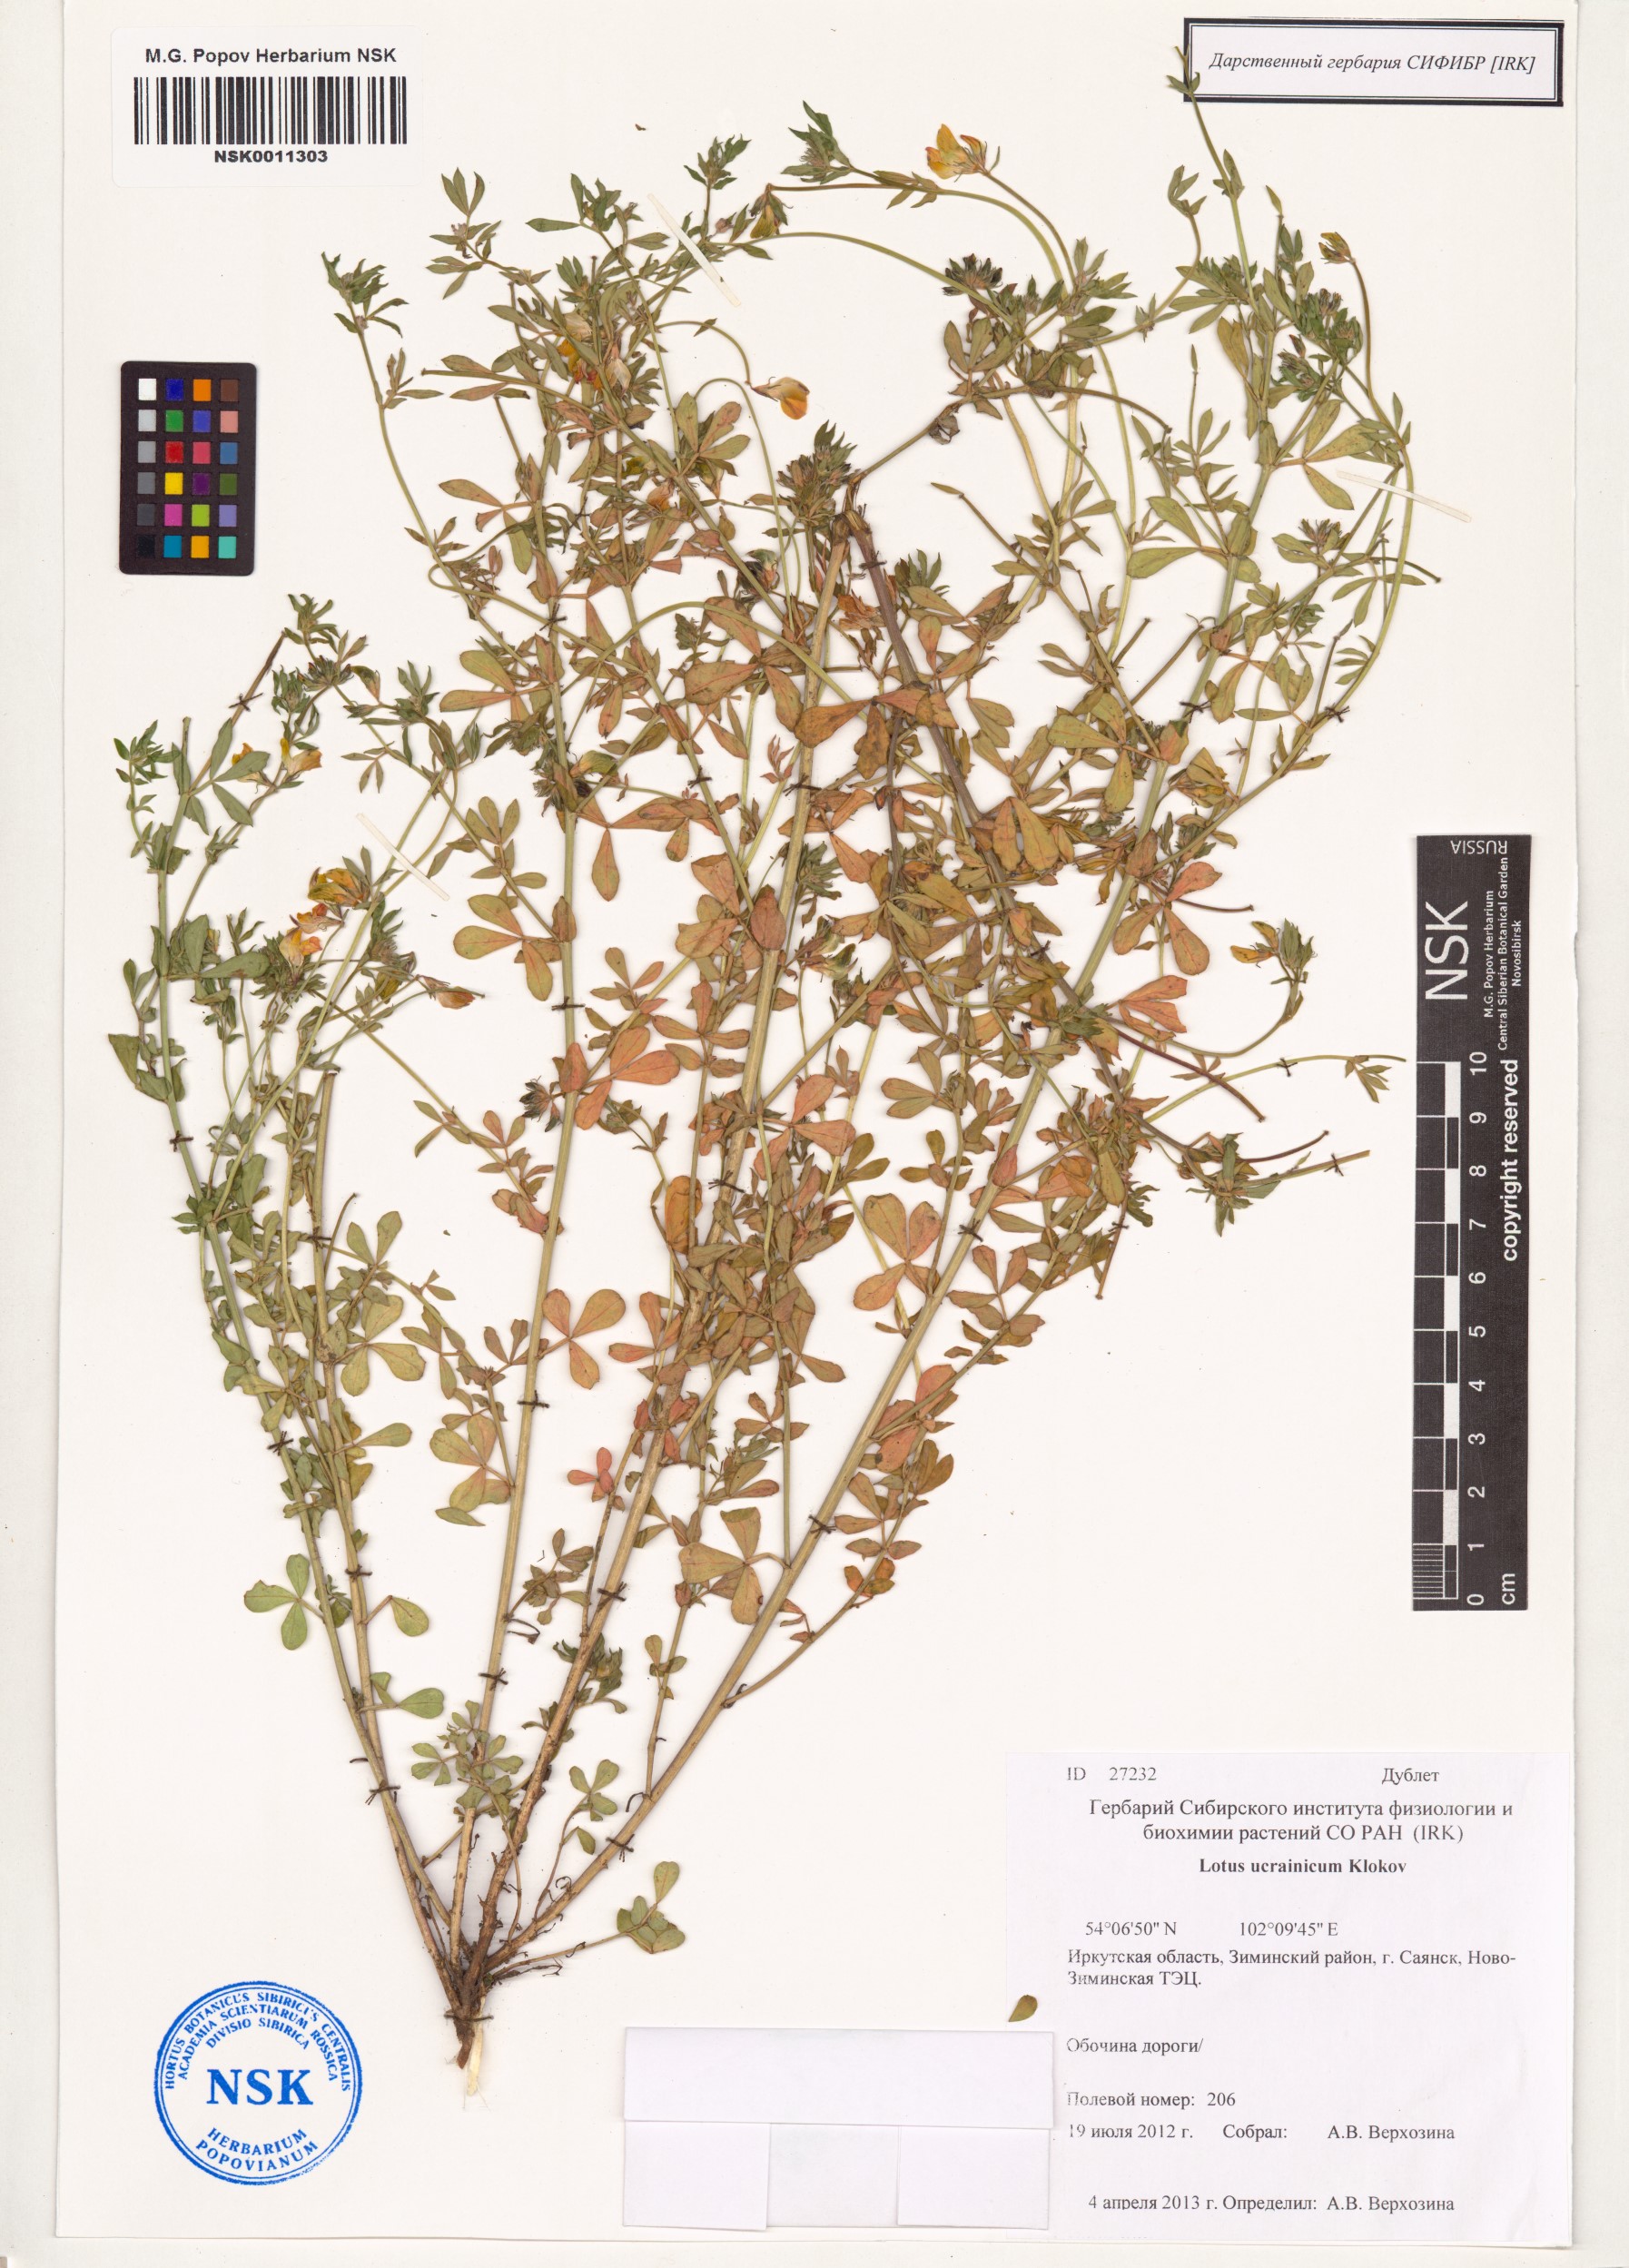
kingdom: Plantae
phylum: Tracheophyta
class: Magnoliopsida
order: Fabales
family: Fabaceae
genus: Lotus
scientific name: Lotus ucrainicus
